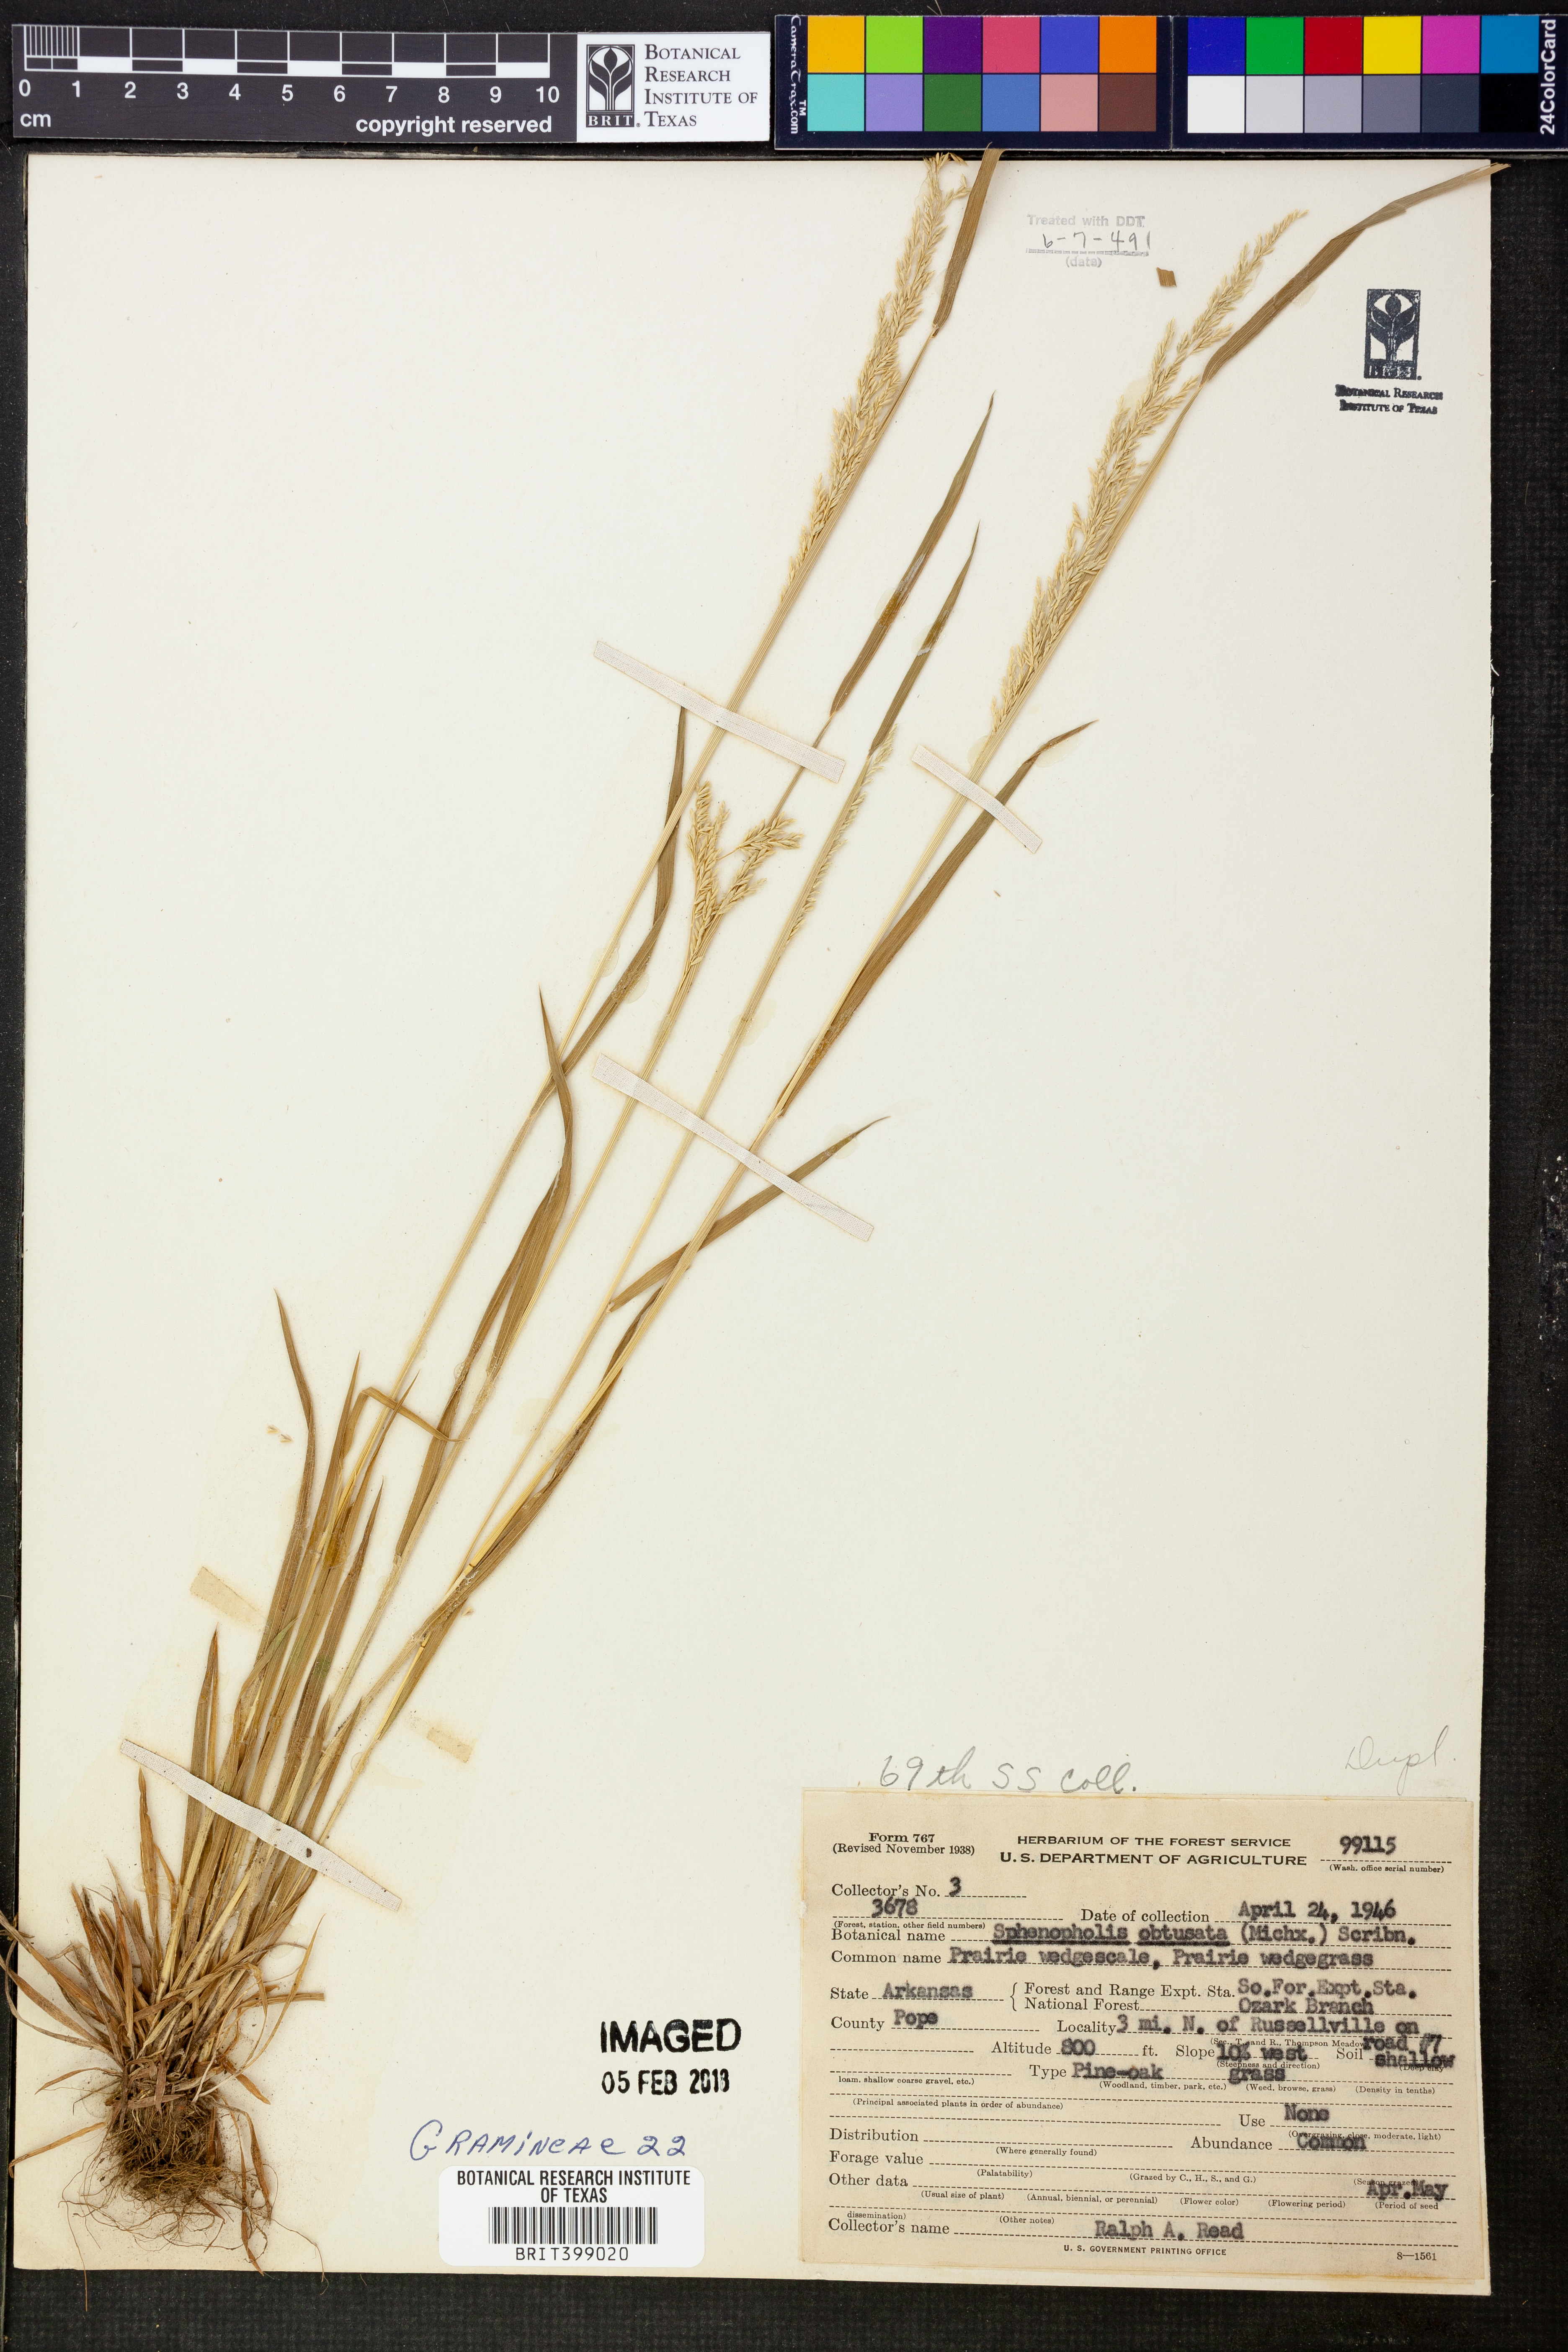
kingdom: Plantae
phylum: Tracheophyta
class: Liliopsida
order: Poales
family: Poaceae
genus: Sphenopholis
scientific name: Sphenopholis obtusata
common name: Prairie grass
